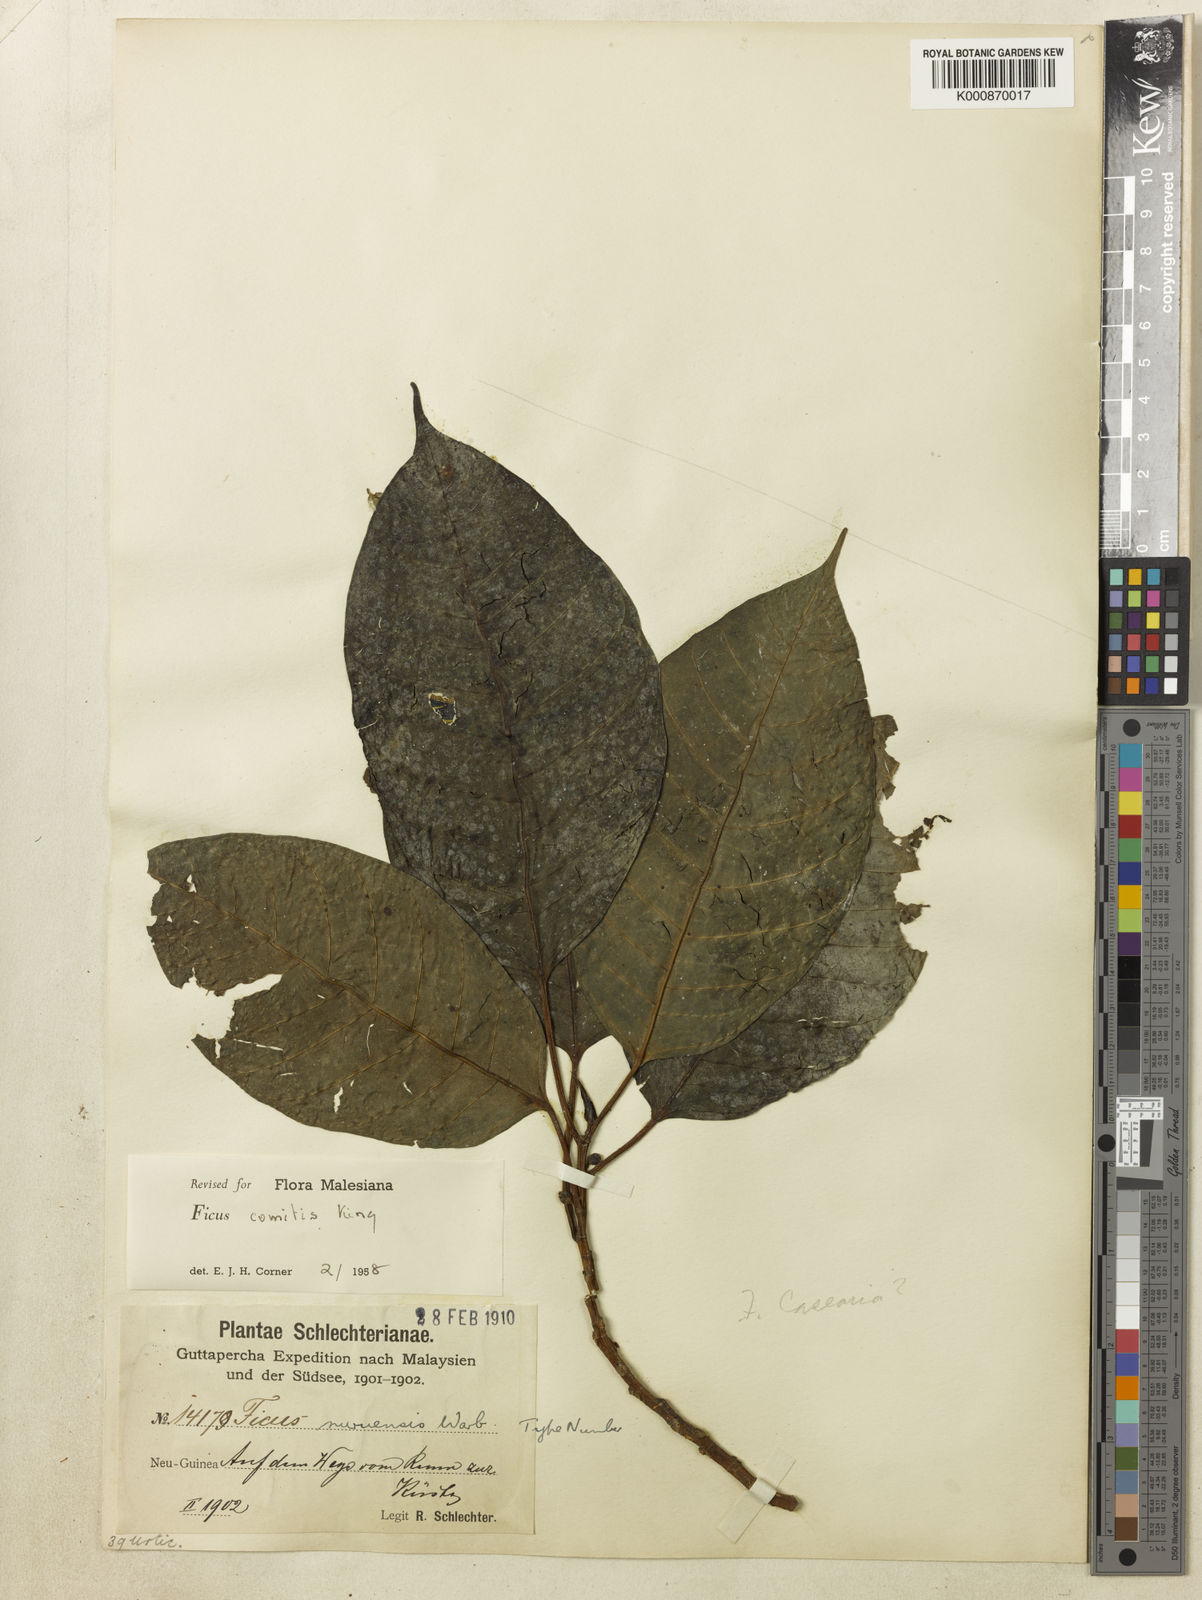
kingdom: Plantae
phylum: Tracheophyta
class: Magnoliopsida
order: Rosales
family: Moraceae
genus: Ficus
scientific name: Ficus comitis
